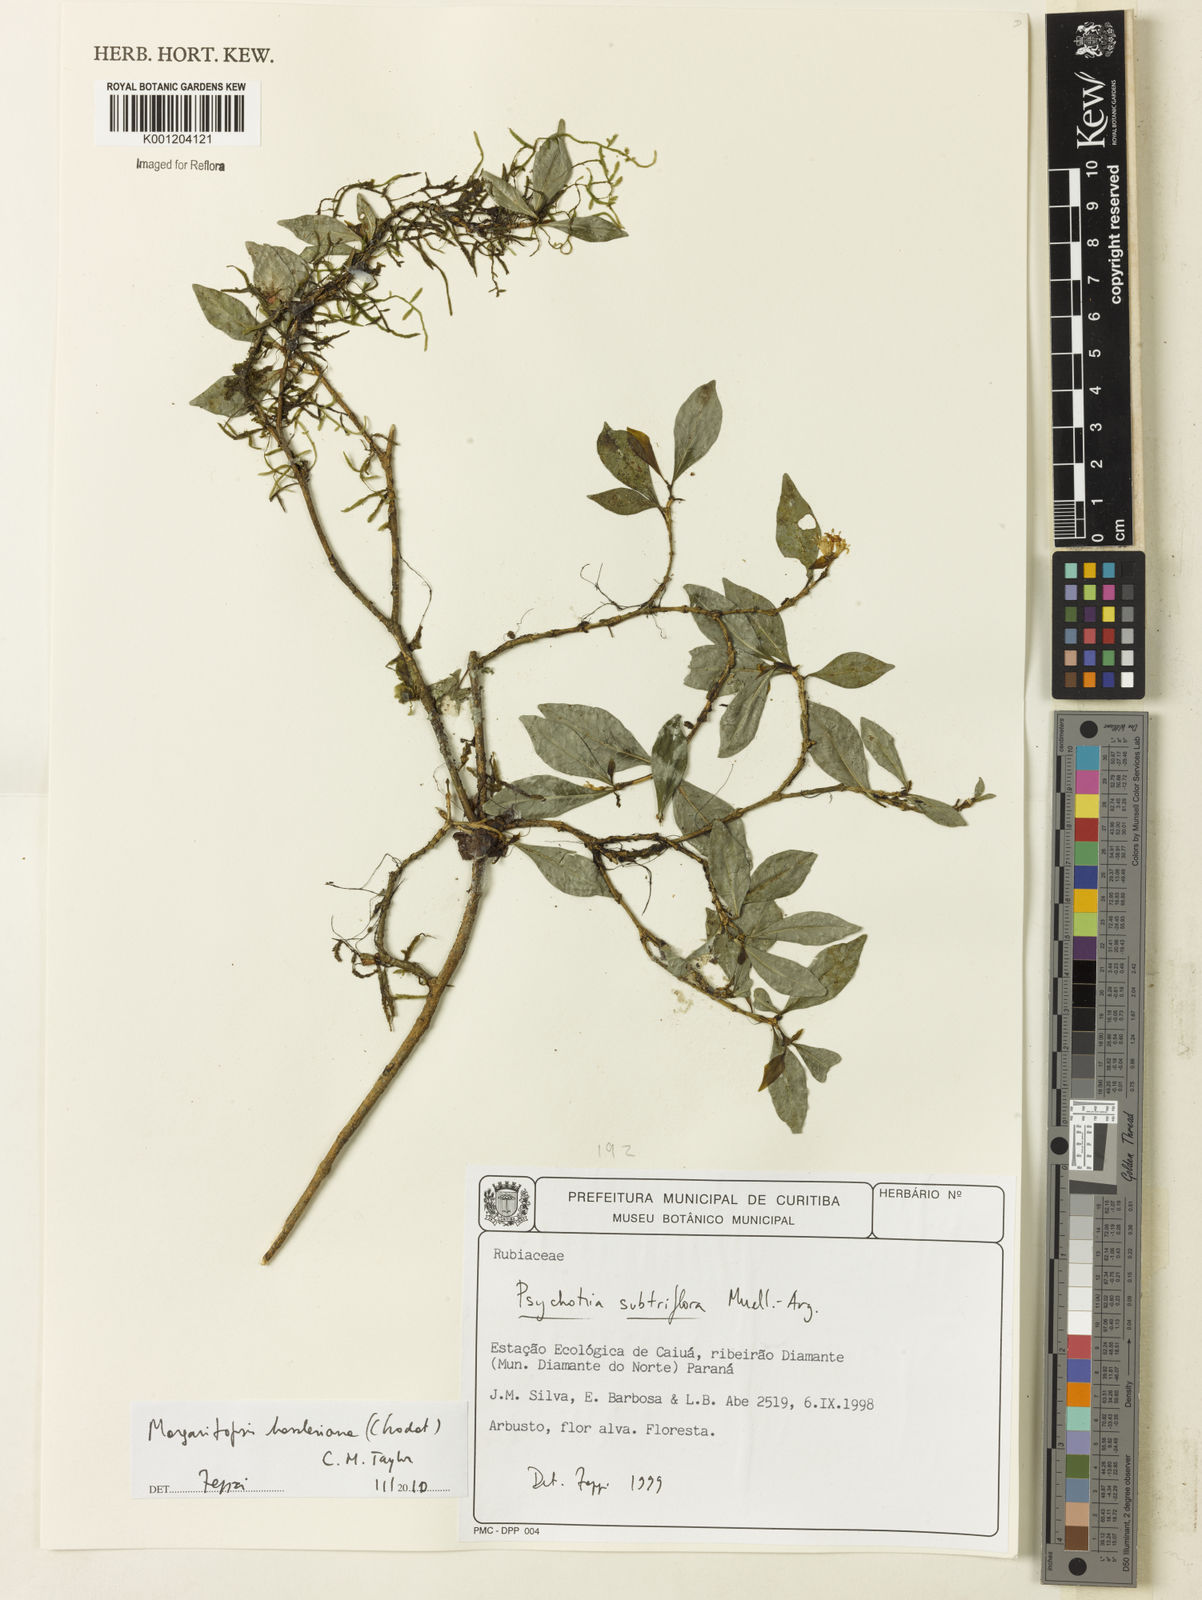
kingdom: Plantae
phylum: Tracheophyta
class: Magnoliopsida
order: Gentianales
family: Rubiaceae
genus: Eumachia
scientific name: Eumachia hassleriana
